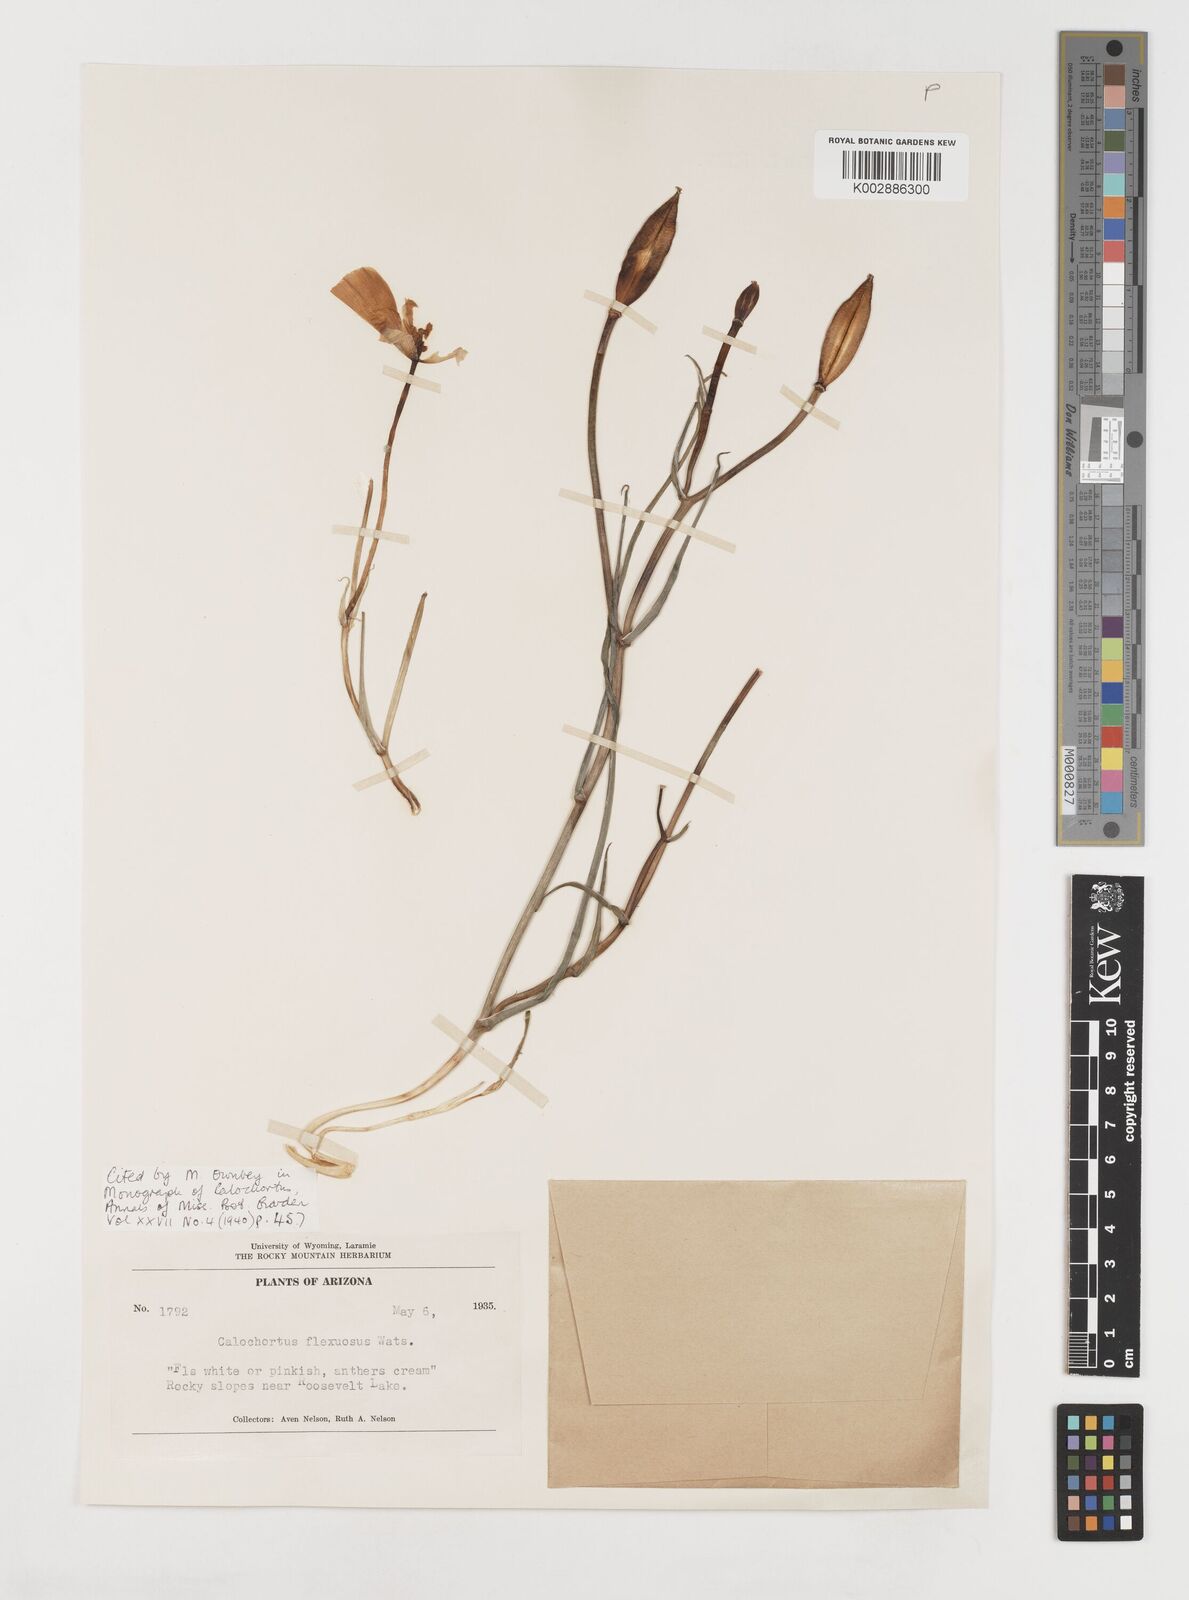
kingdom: Plantae
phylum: Tracheophyta
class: Liliopsida
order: Liliales
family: Liliaceae
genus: Calochortus
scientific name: Calochortus flexuosus
